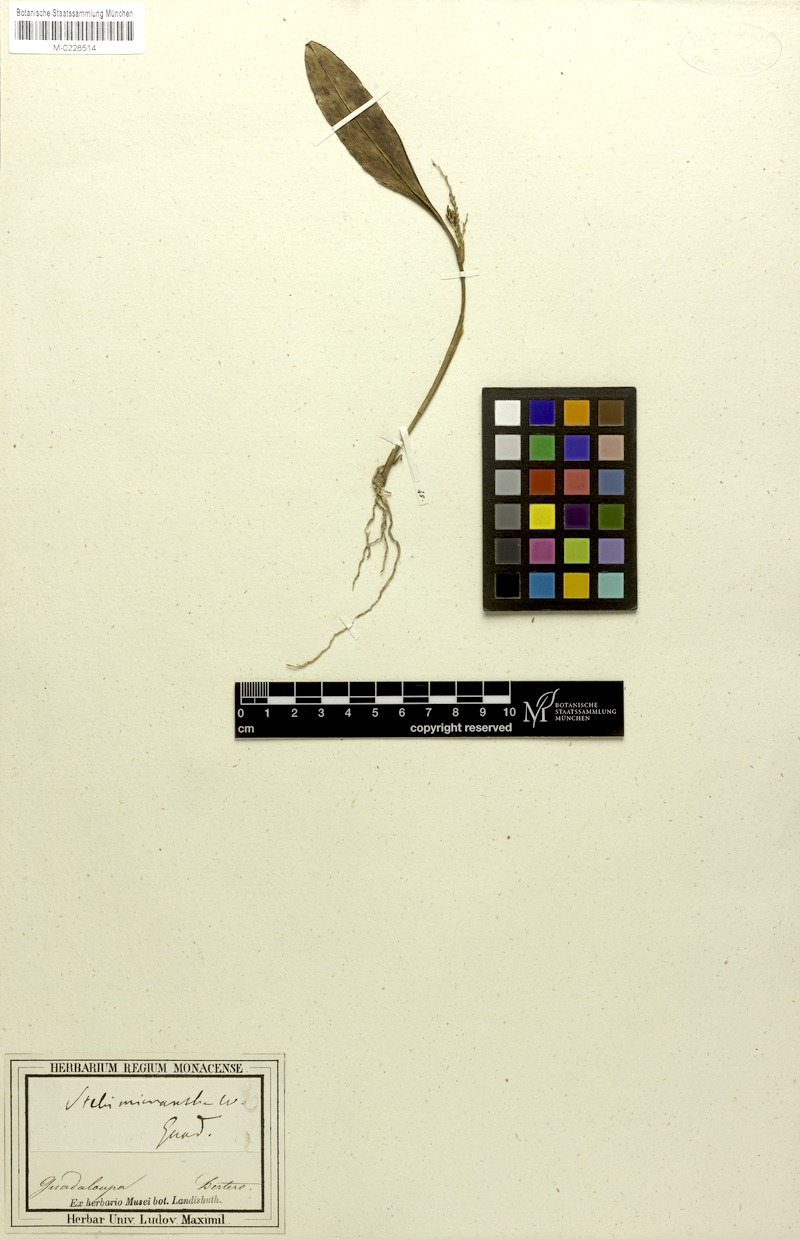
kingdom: Plantae
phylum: Tracheophyta
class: Liliopsida
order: Asparagales
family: Orchidaceae
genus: Stelis
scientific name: Stelis micrantha
